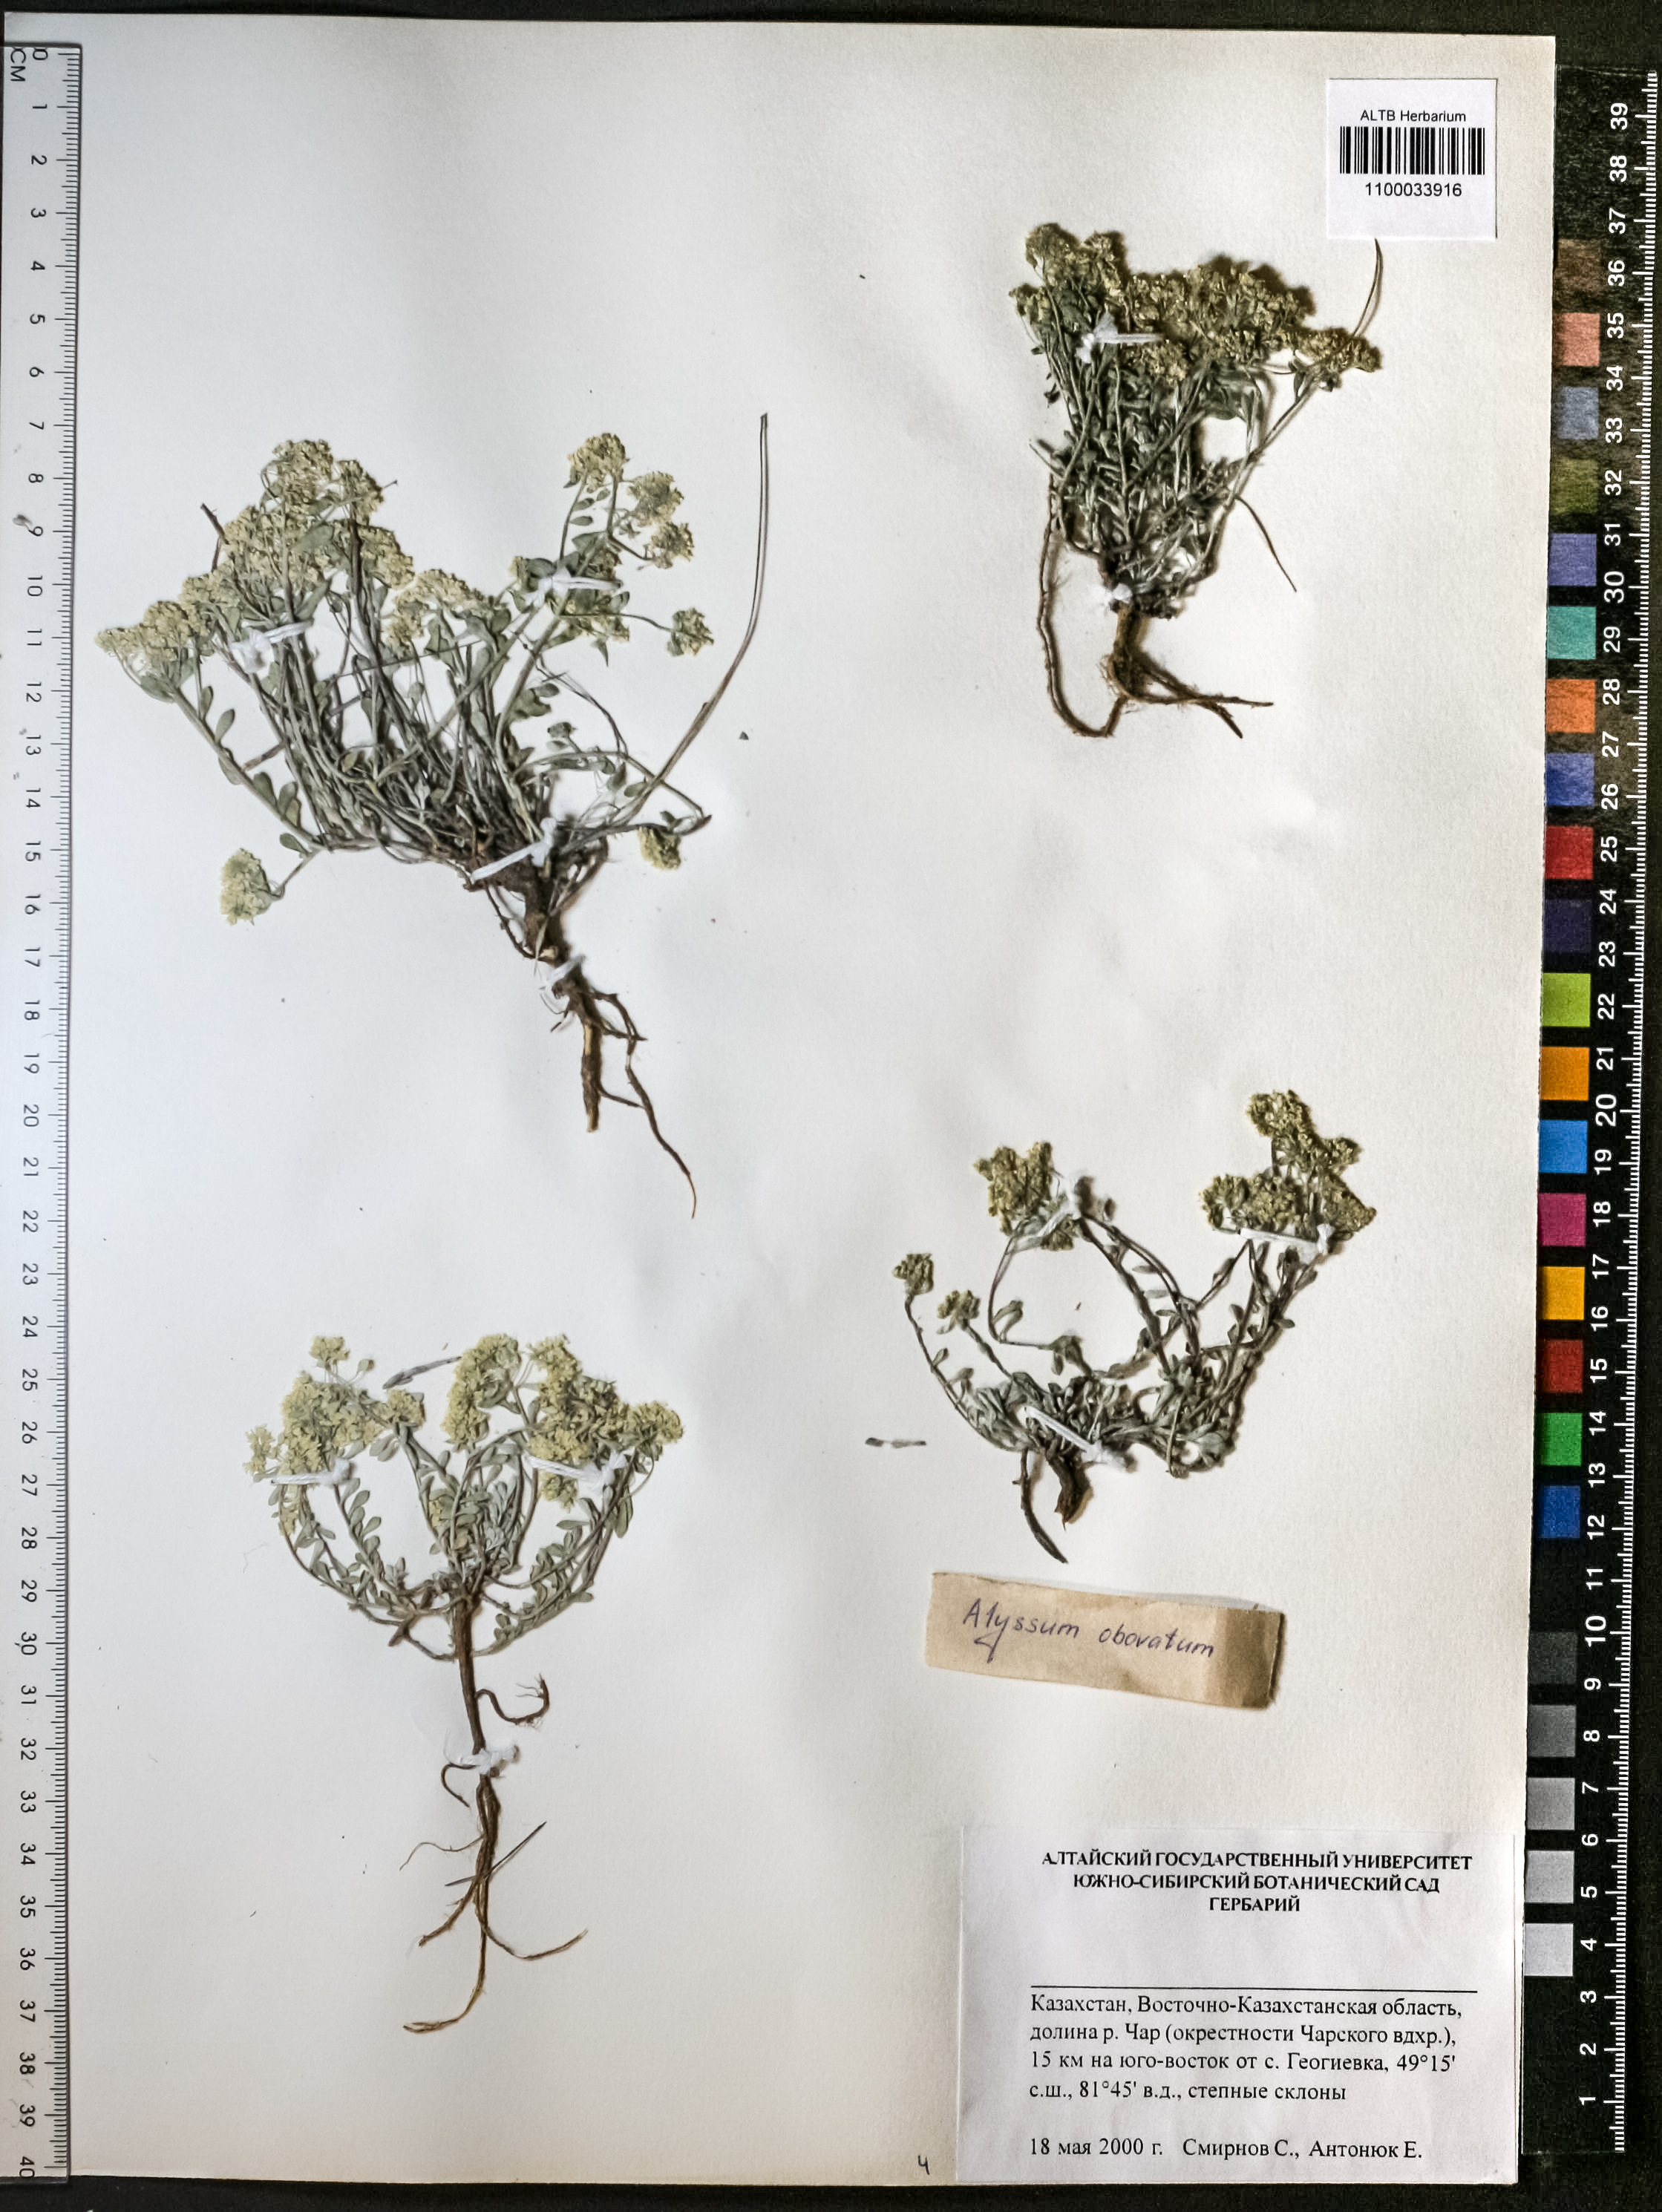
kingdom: Plantae
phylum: Tracheophyta
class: Magnoliopsida
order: Brassicales
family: Brassicaceae
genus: Odontarrhena
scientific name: Odontarrhena obovata
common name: American alyssum
